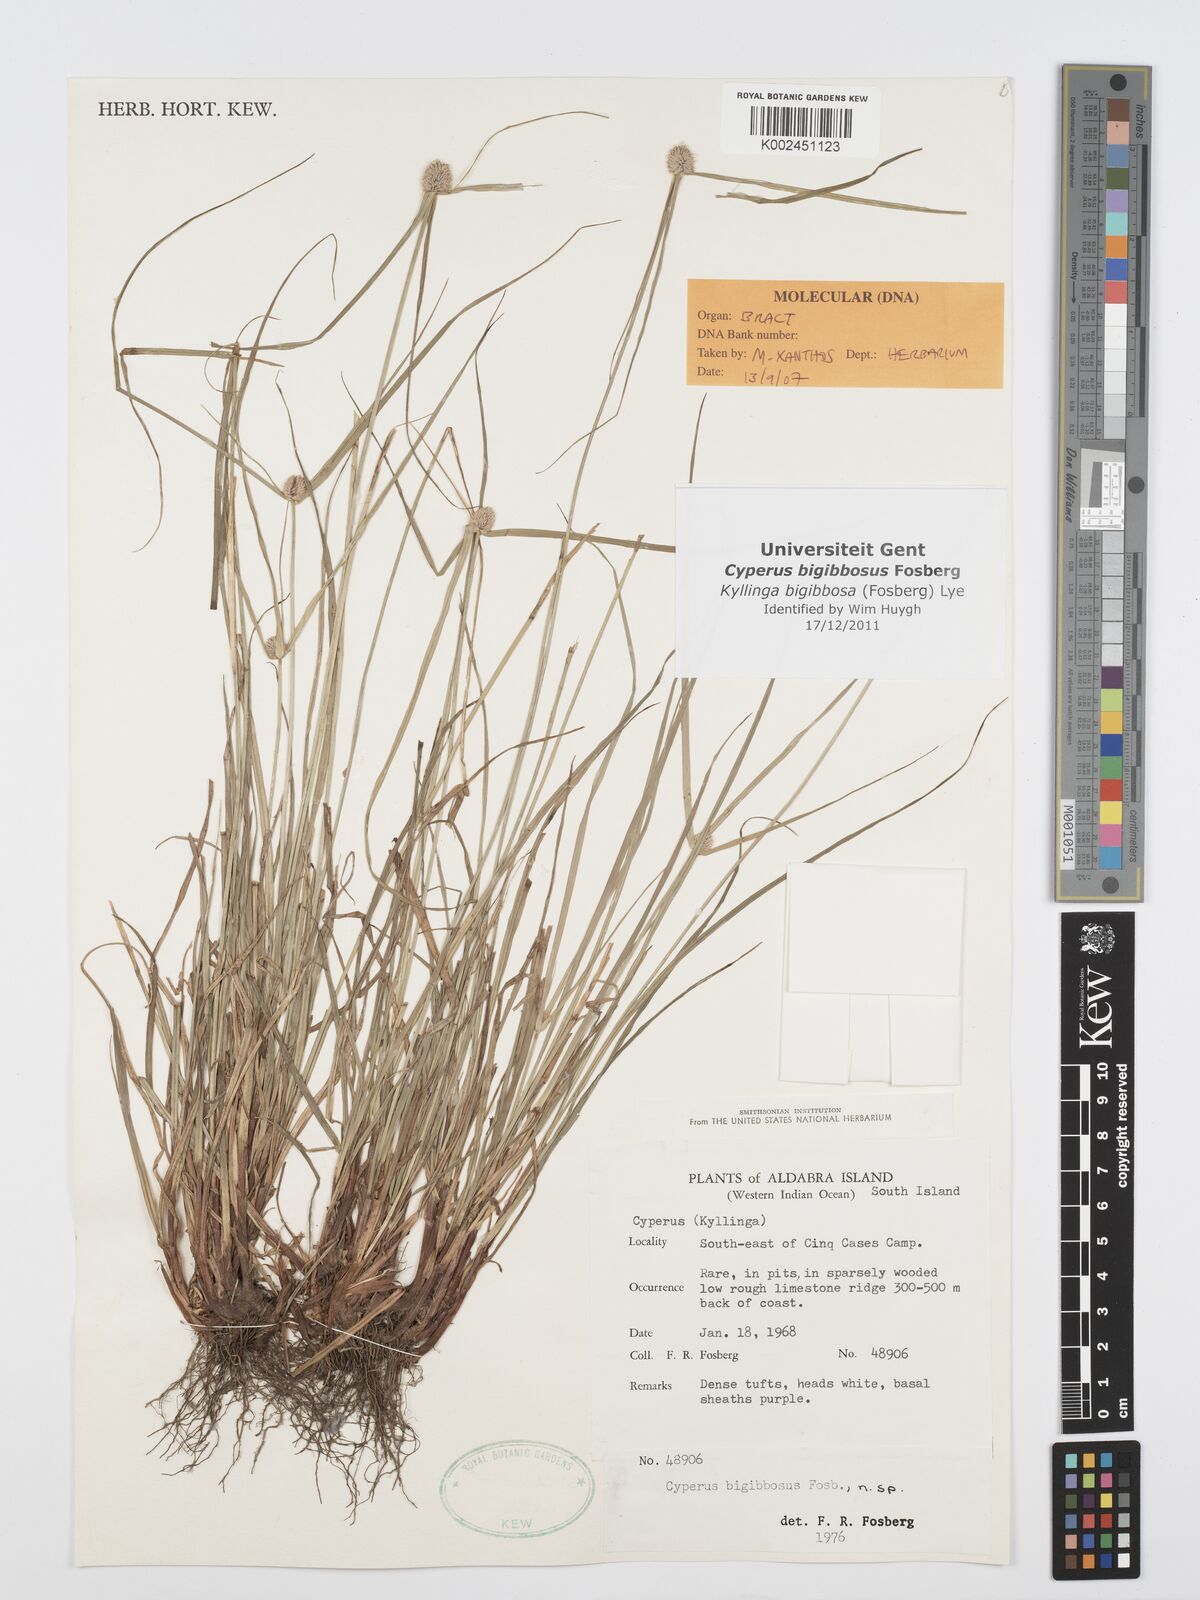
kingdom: Plantae
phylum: Tracheophyta
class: Liliopsida
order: Poales
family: Cyperaceae
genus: Cyperus
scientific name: Cyperus bigibbosa
